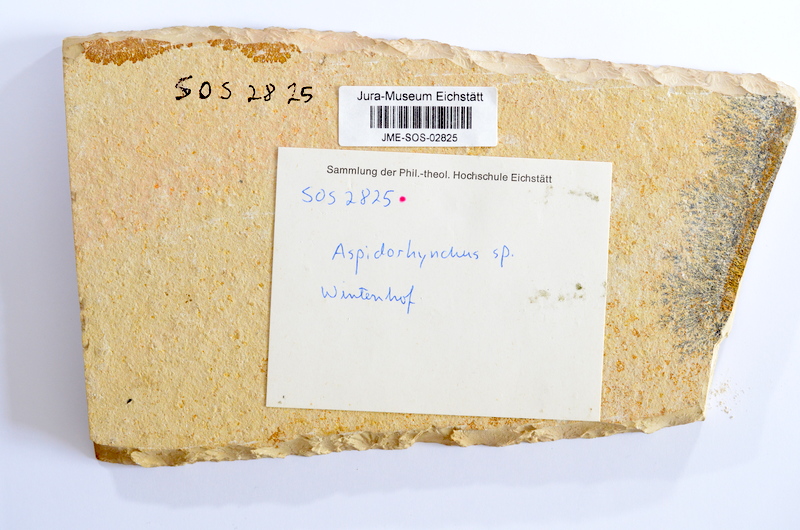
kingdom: Animalia
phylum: Chordata
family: Aspidorhynchidae
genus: Aspidorhynchus
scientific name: Aspidorhynchus acutirostris
